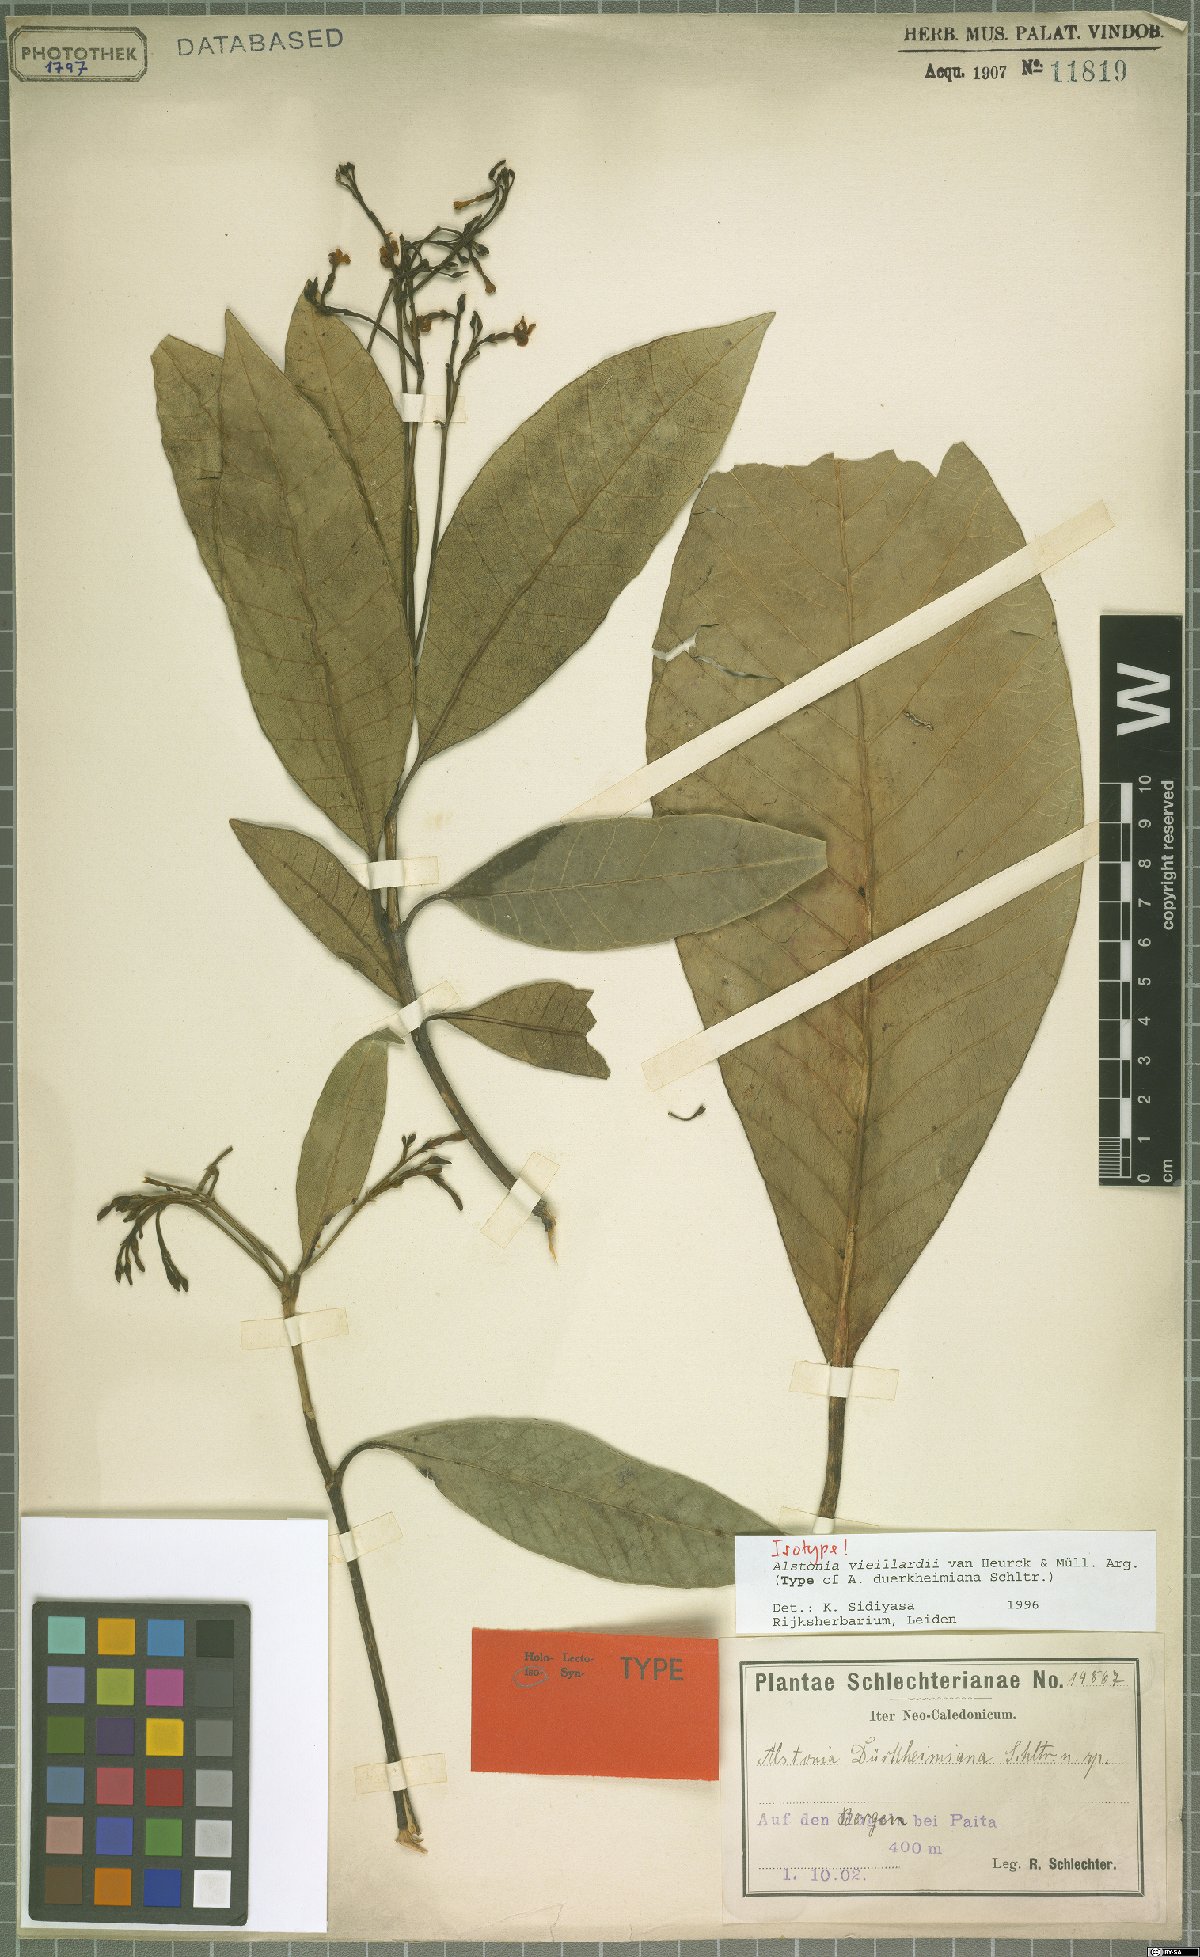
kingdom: Plantae
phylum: Tracheophyta
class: Magnoliopsida
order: Gentianales
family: Apocynaceae
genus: Alstonia
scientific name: Alstonia vieillardii
